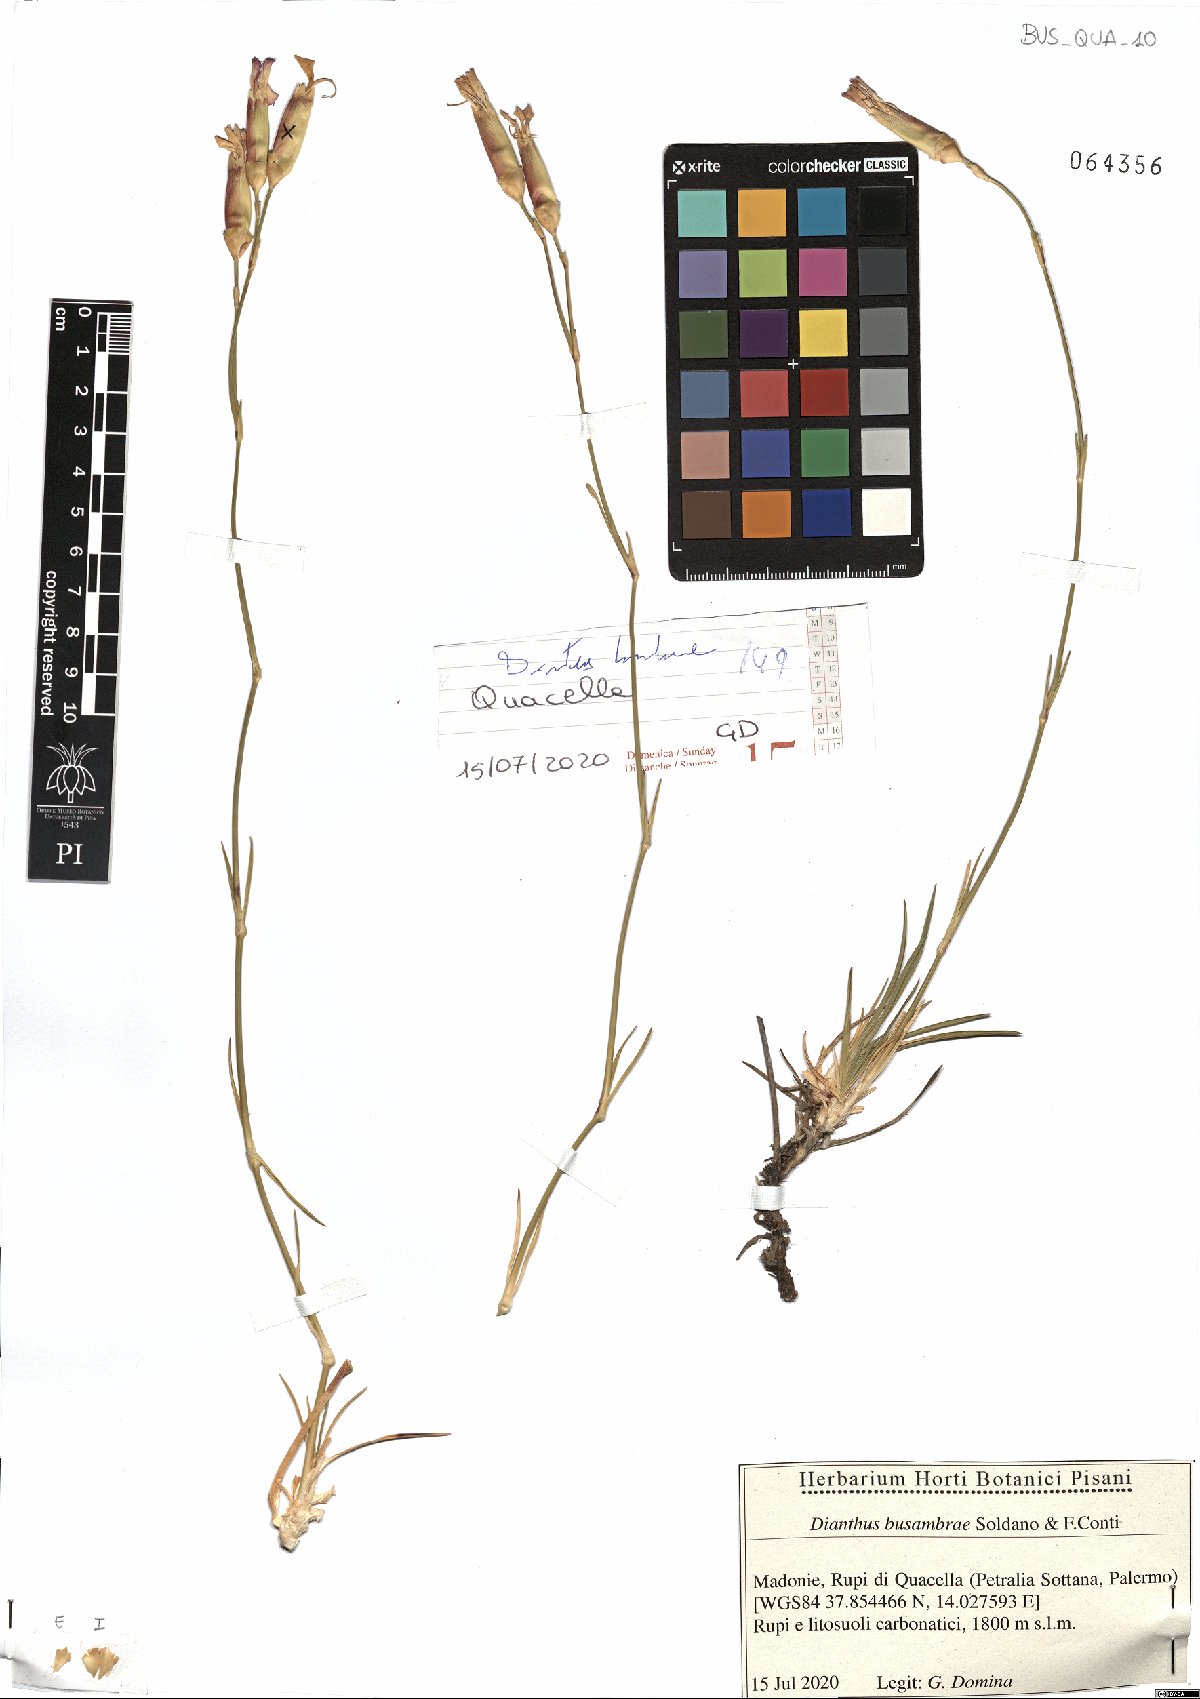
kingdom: Plantae
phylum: Tracheophyta
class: Magnoliopsida
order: Caryophyllales
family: Caryophyllaceae
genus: Dianthus
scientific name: Dianthus busambrae
